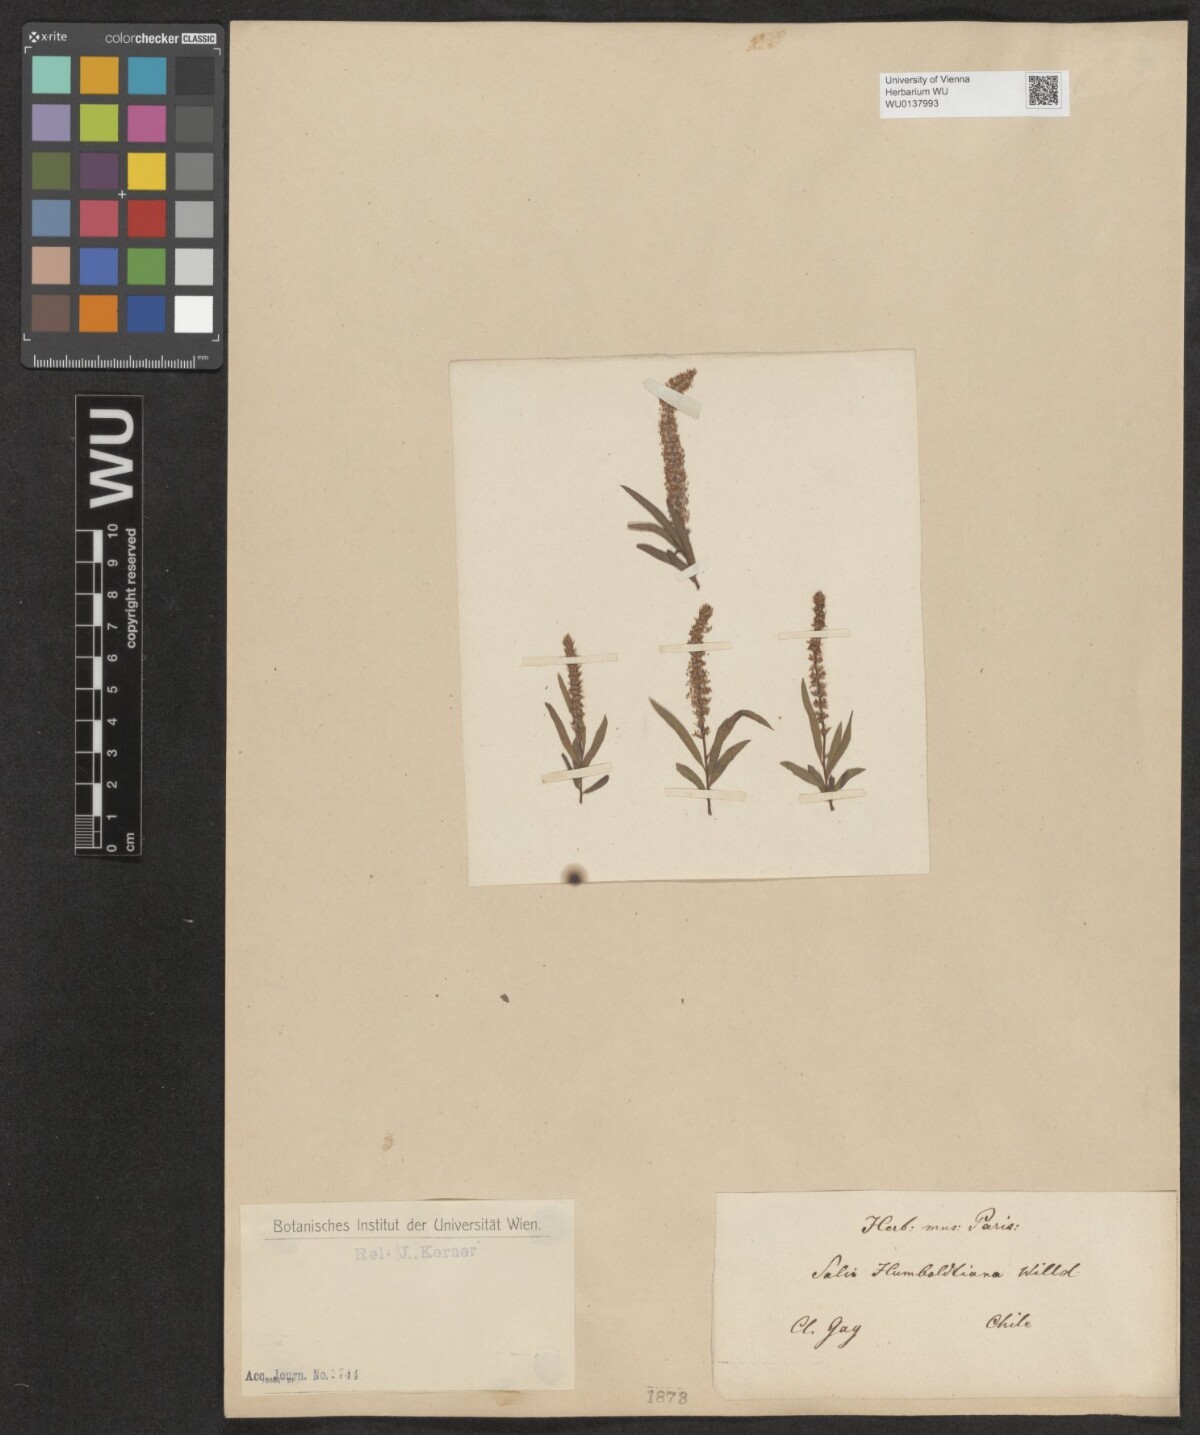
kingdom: Plantae
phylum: Tracheophyta
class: Magnoliopsida
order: Malpighiales
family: Salicaceae
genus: Salix
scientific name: Salix humboldtiana
